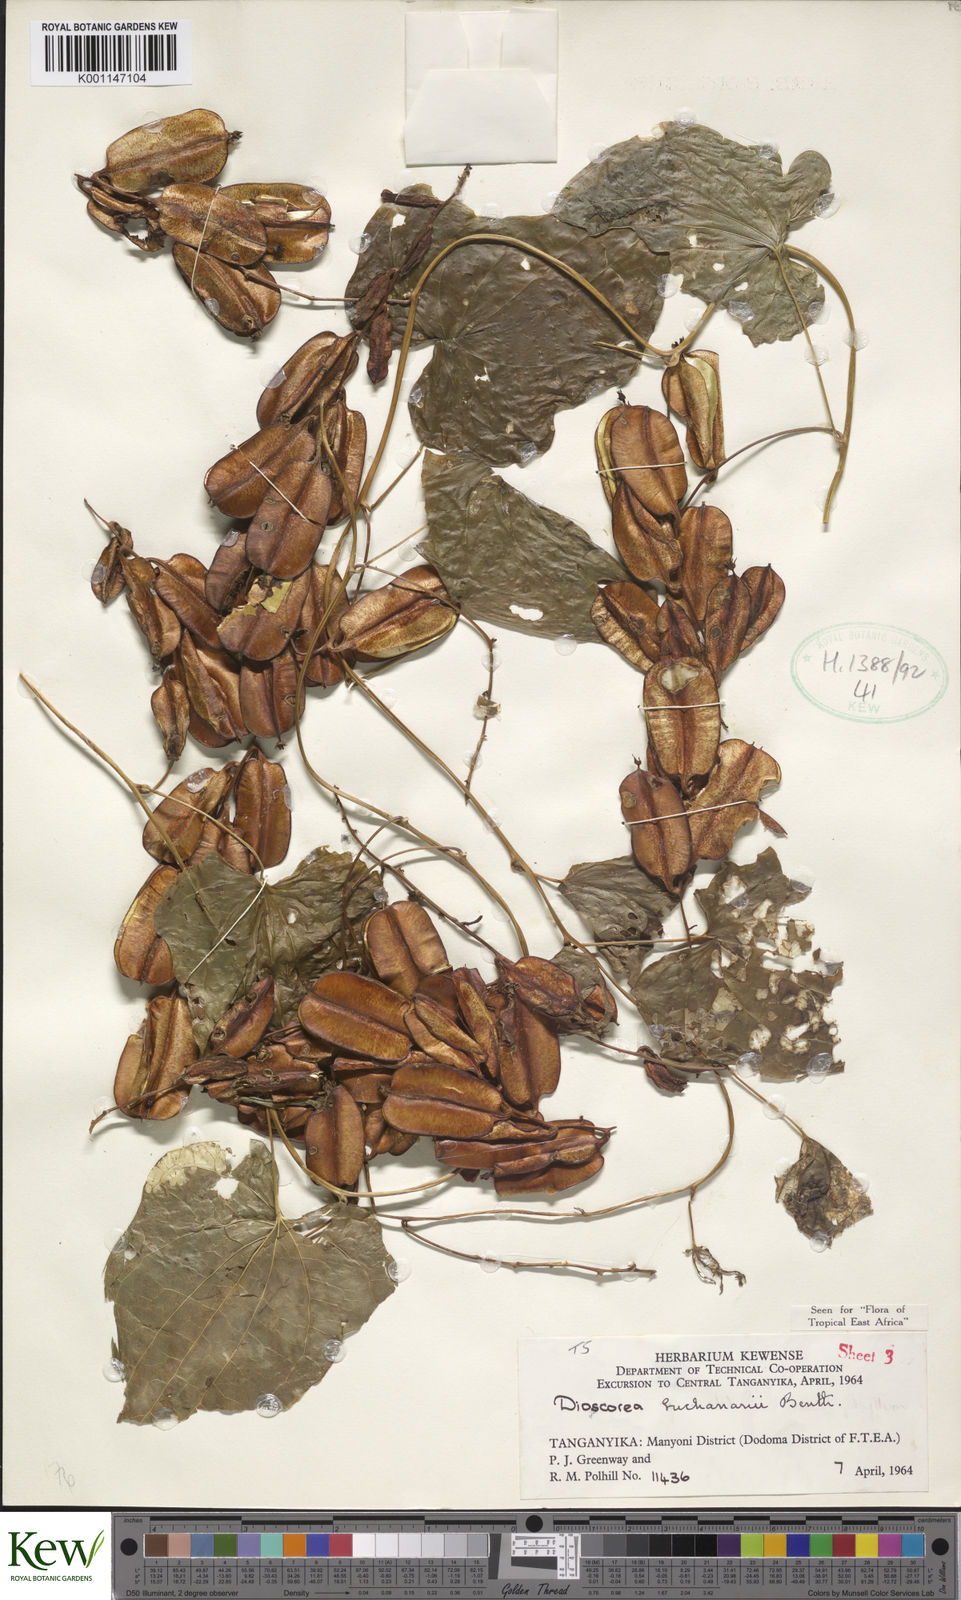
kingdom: Plantae
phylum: Tracheophyta
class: Liliopsida
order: Dioscoreales
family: Dioscoreaceae
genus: Dioscorea
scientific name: Dioscorea buchananii
